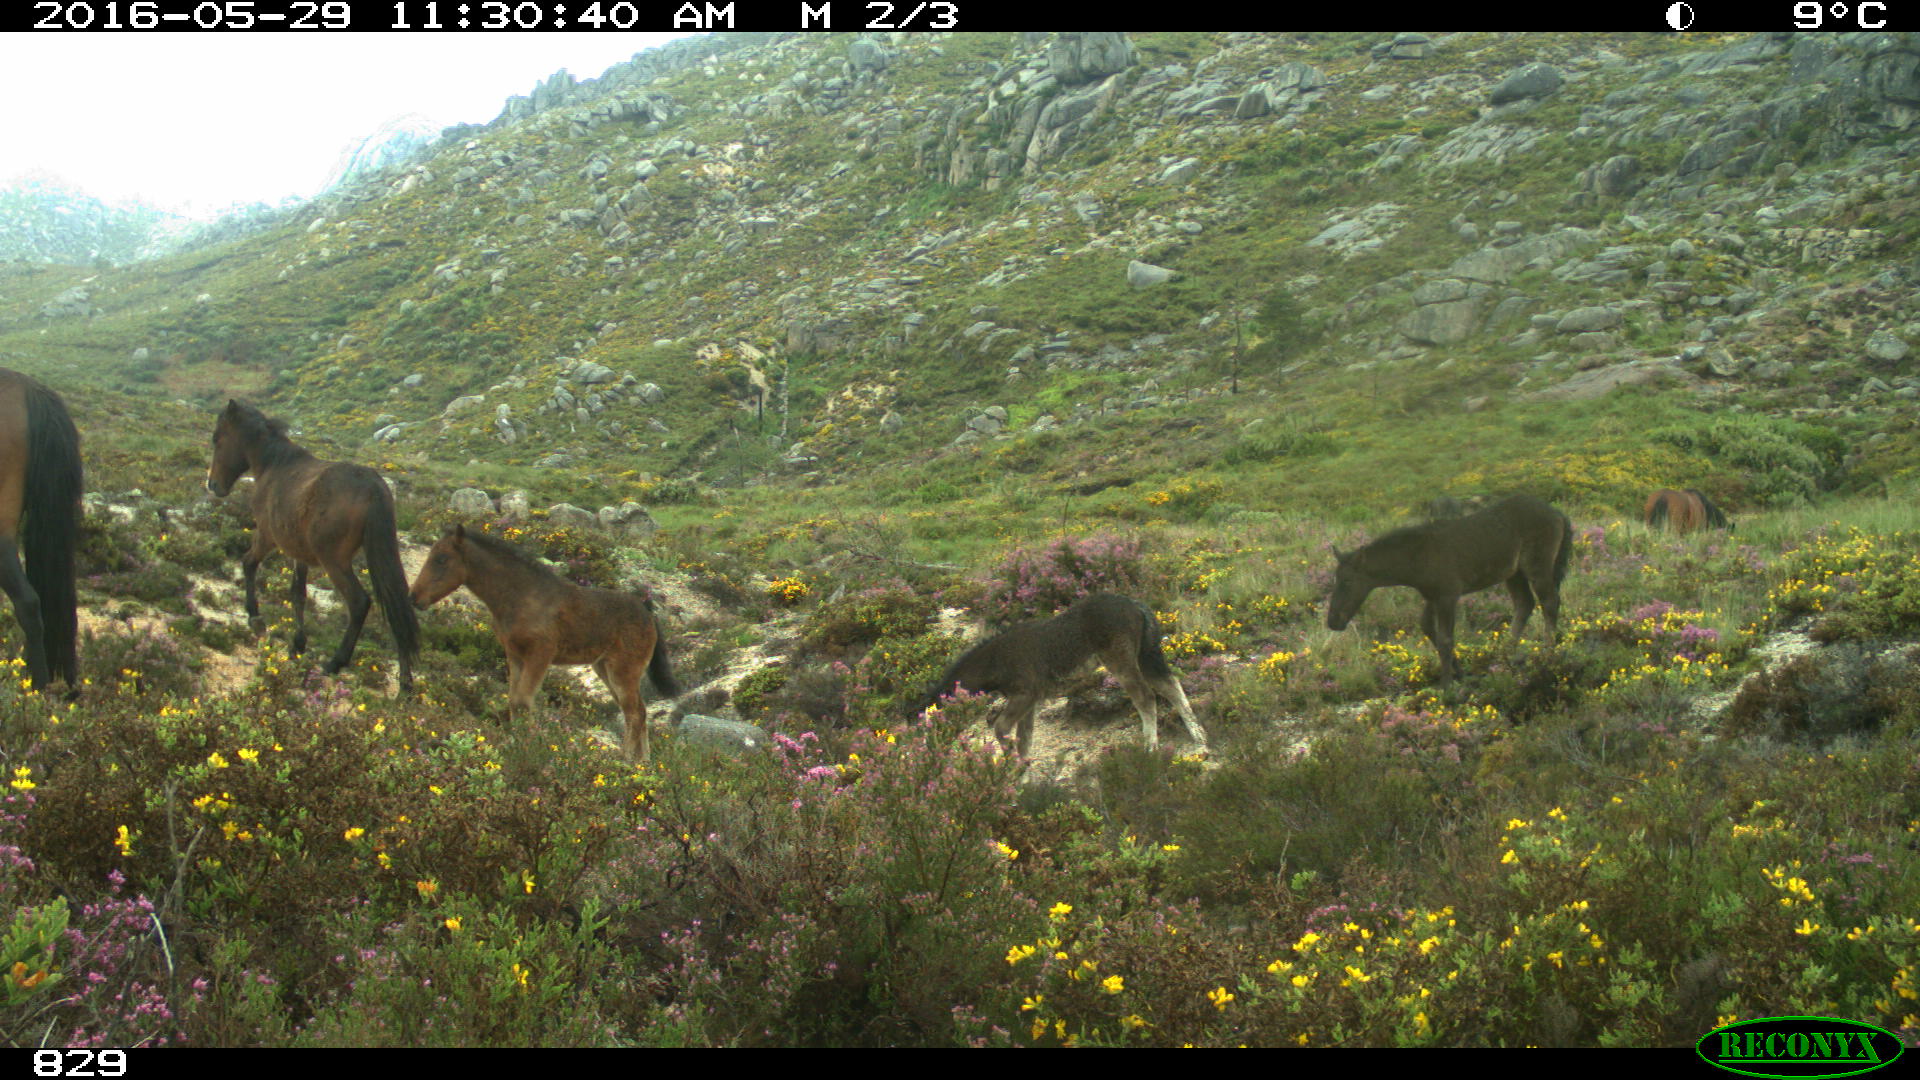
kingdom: Animalia
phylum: Chordata
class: Mammalia
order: Perissodactyla
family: Equidae
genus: Equus
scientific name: Equus caballus
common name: Horse
